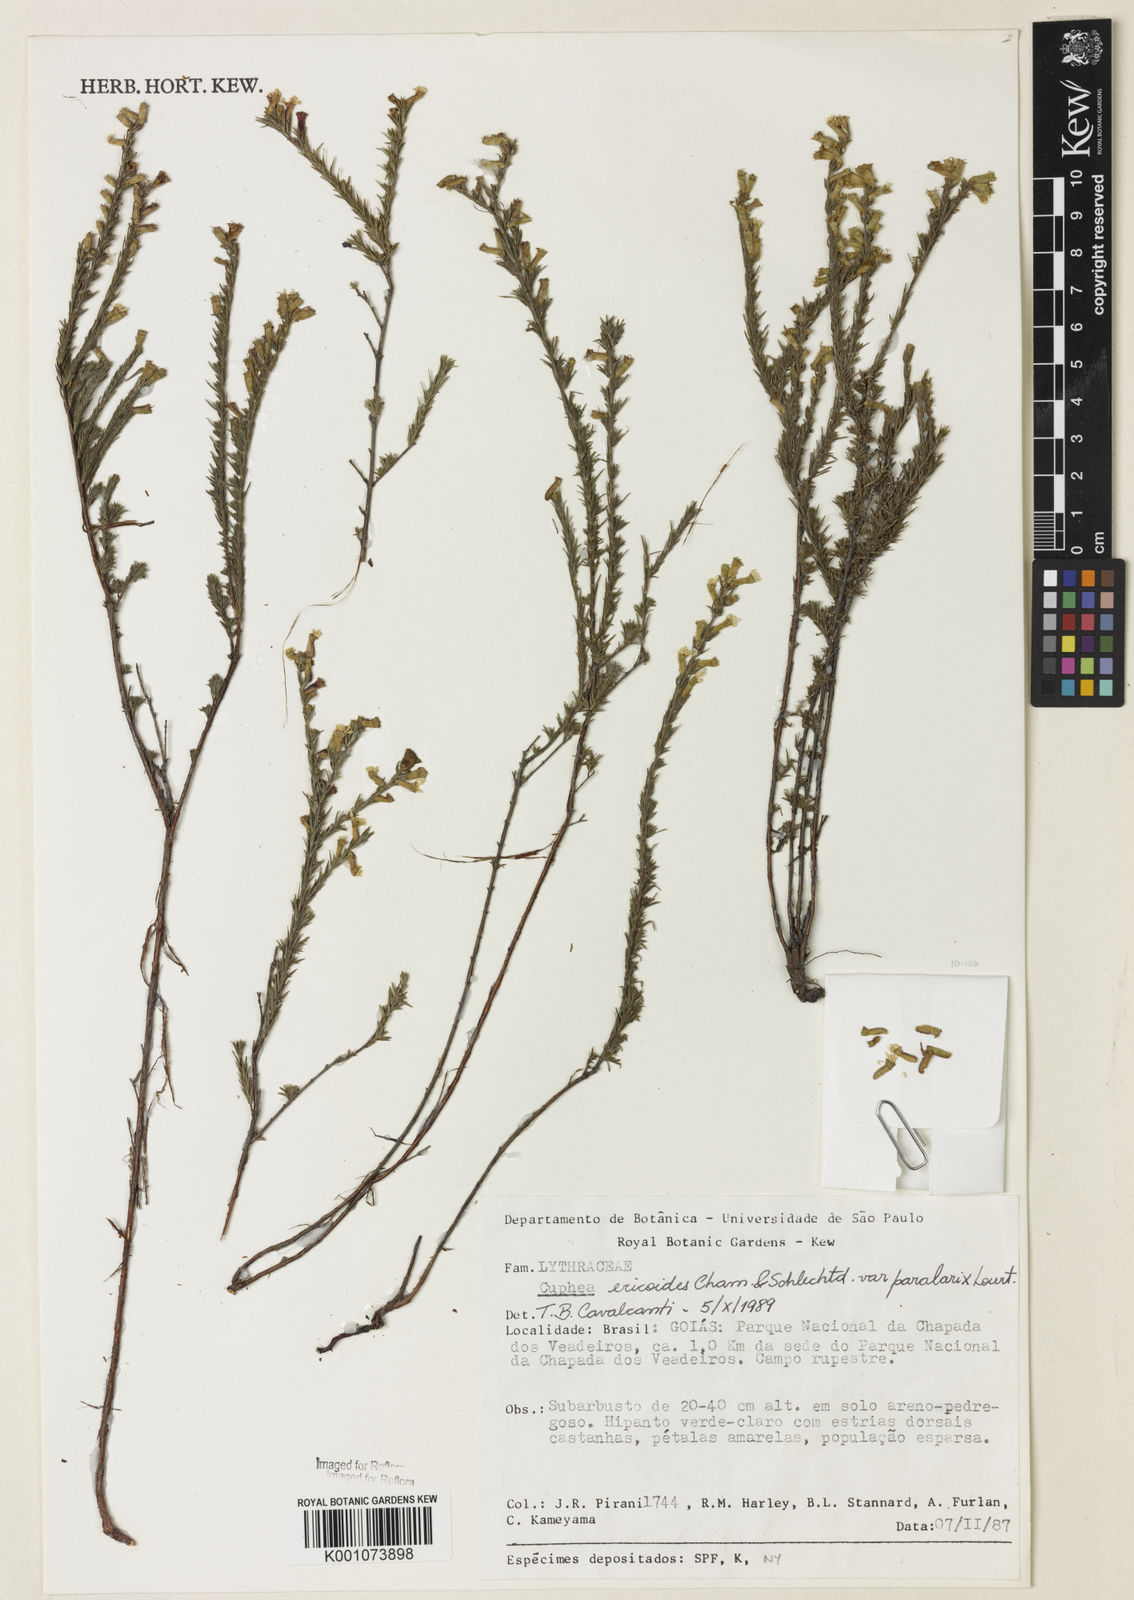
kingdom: Plantae
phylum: Tracheophyta
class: Magnoliopsida
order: Myrtales
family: Lythraceae
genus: Cuphea
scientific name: Cuphea paralarix
